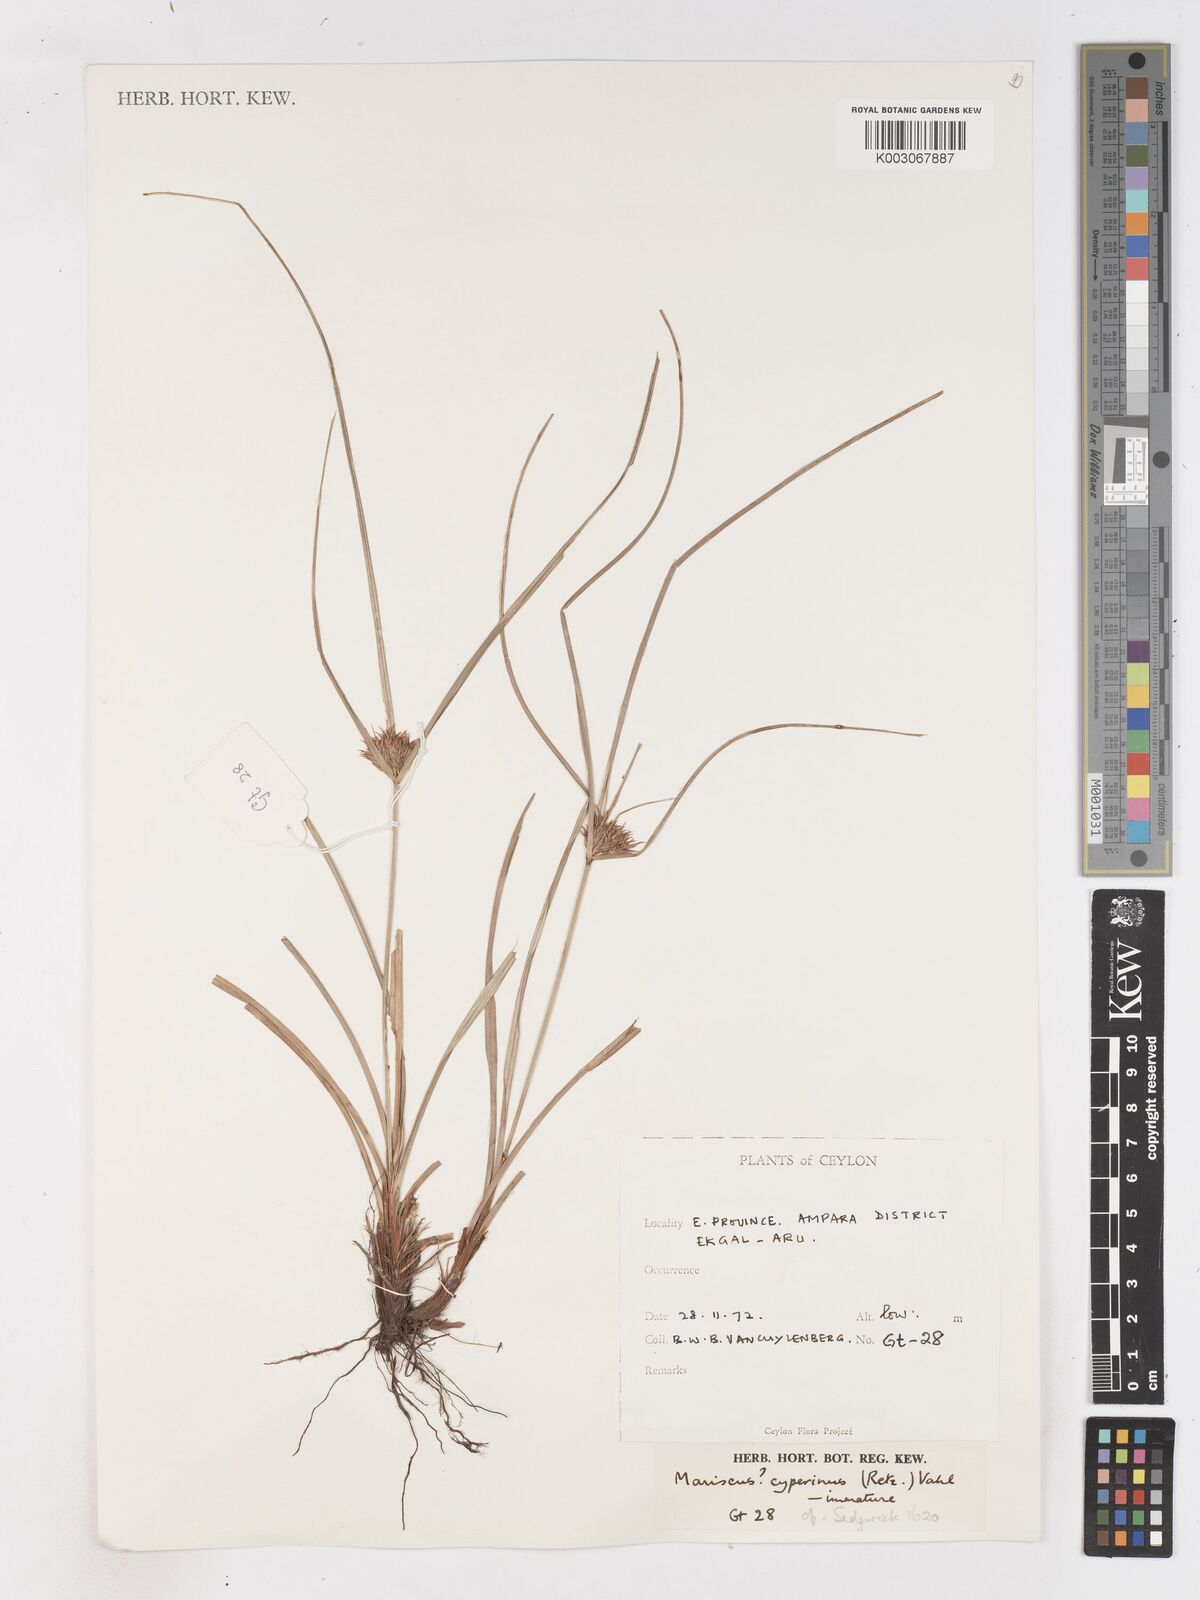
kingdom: Plantae
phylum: Tracheophyta
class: Liliopsida
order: Poales
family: Cyperaceae
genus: Cyperus
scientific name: Cyperus cyperinus
